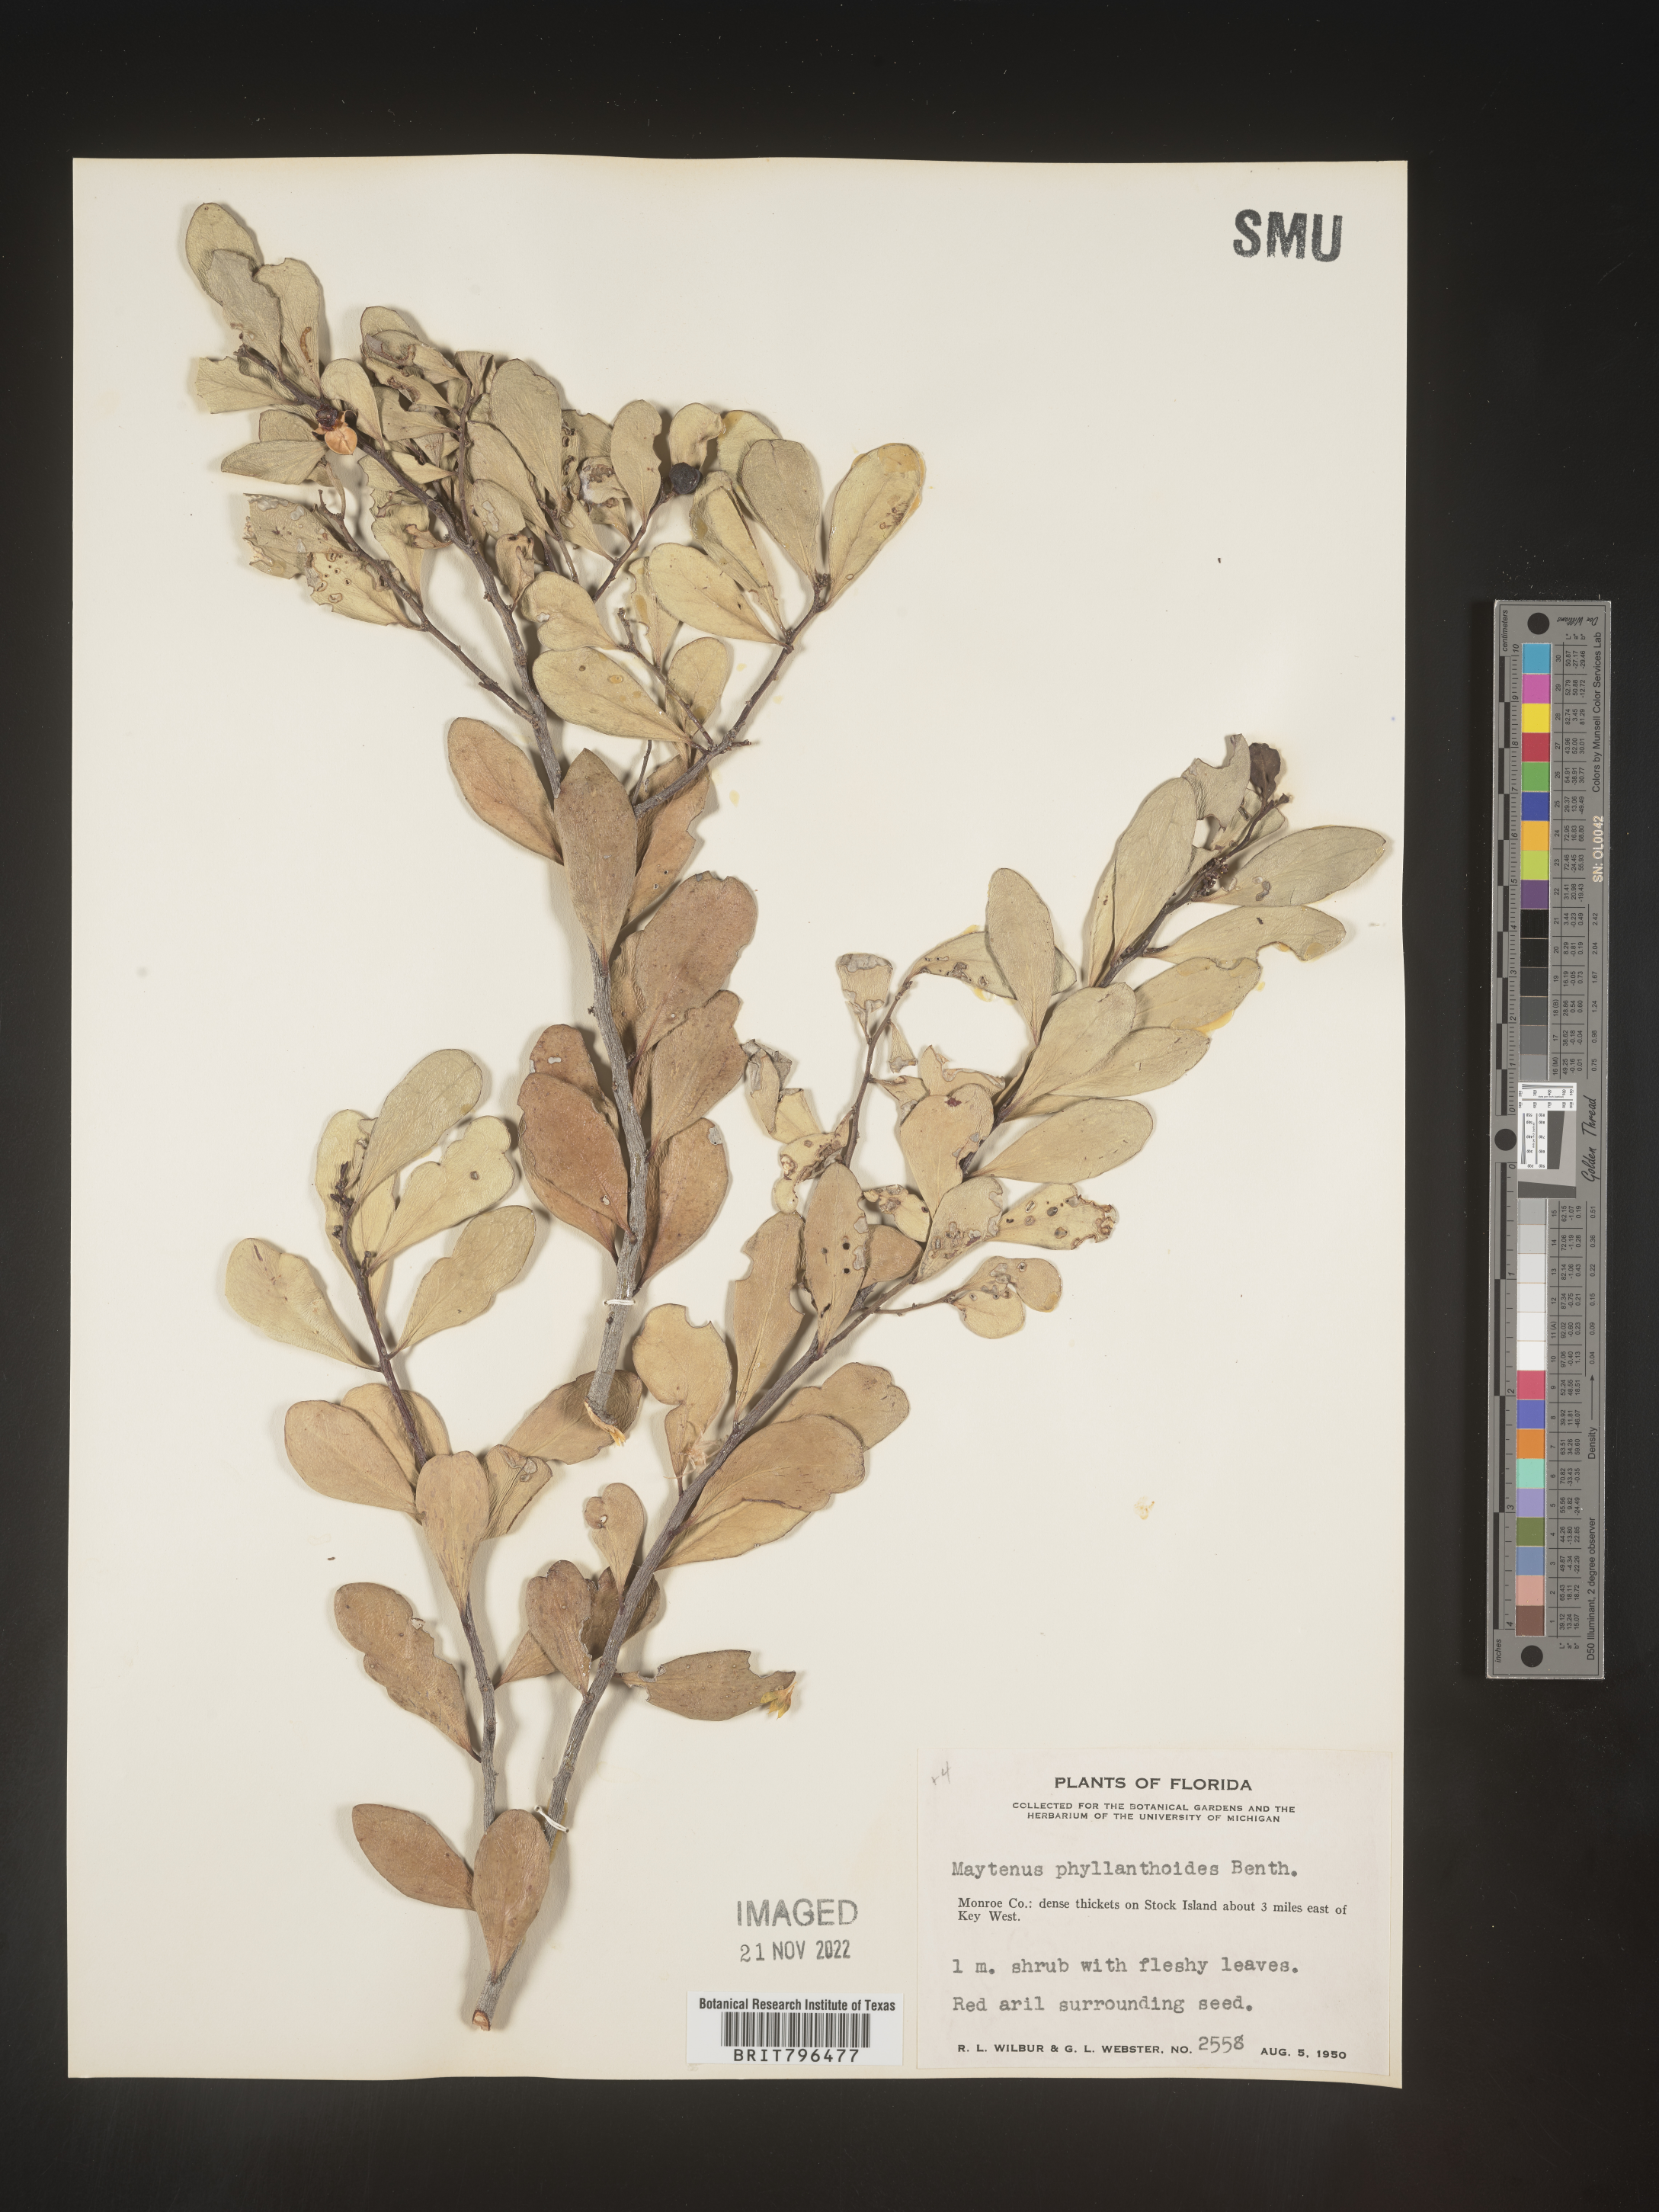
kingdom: Plantae
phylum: Tracheophyta
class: Magnoliopsida
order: Celastrales
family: Celastraceae
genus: Maytenus
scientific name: Maytenus
